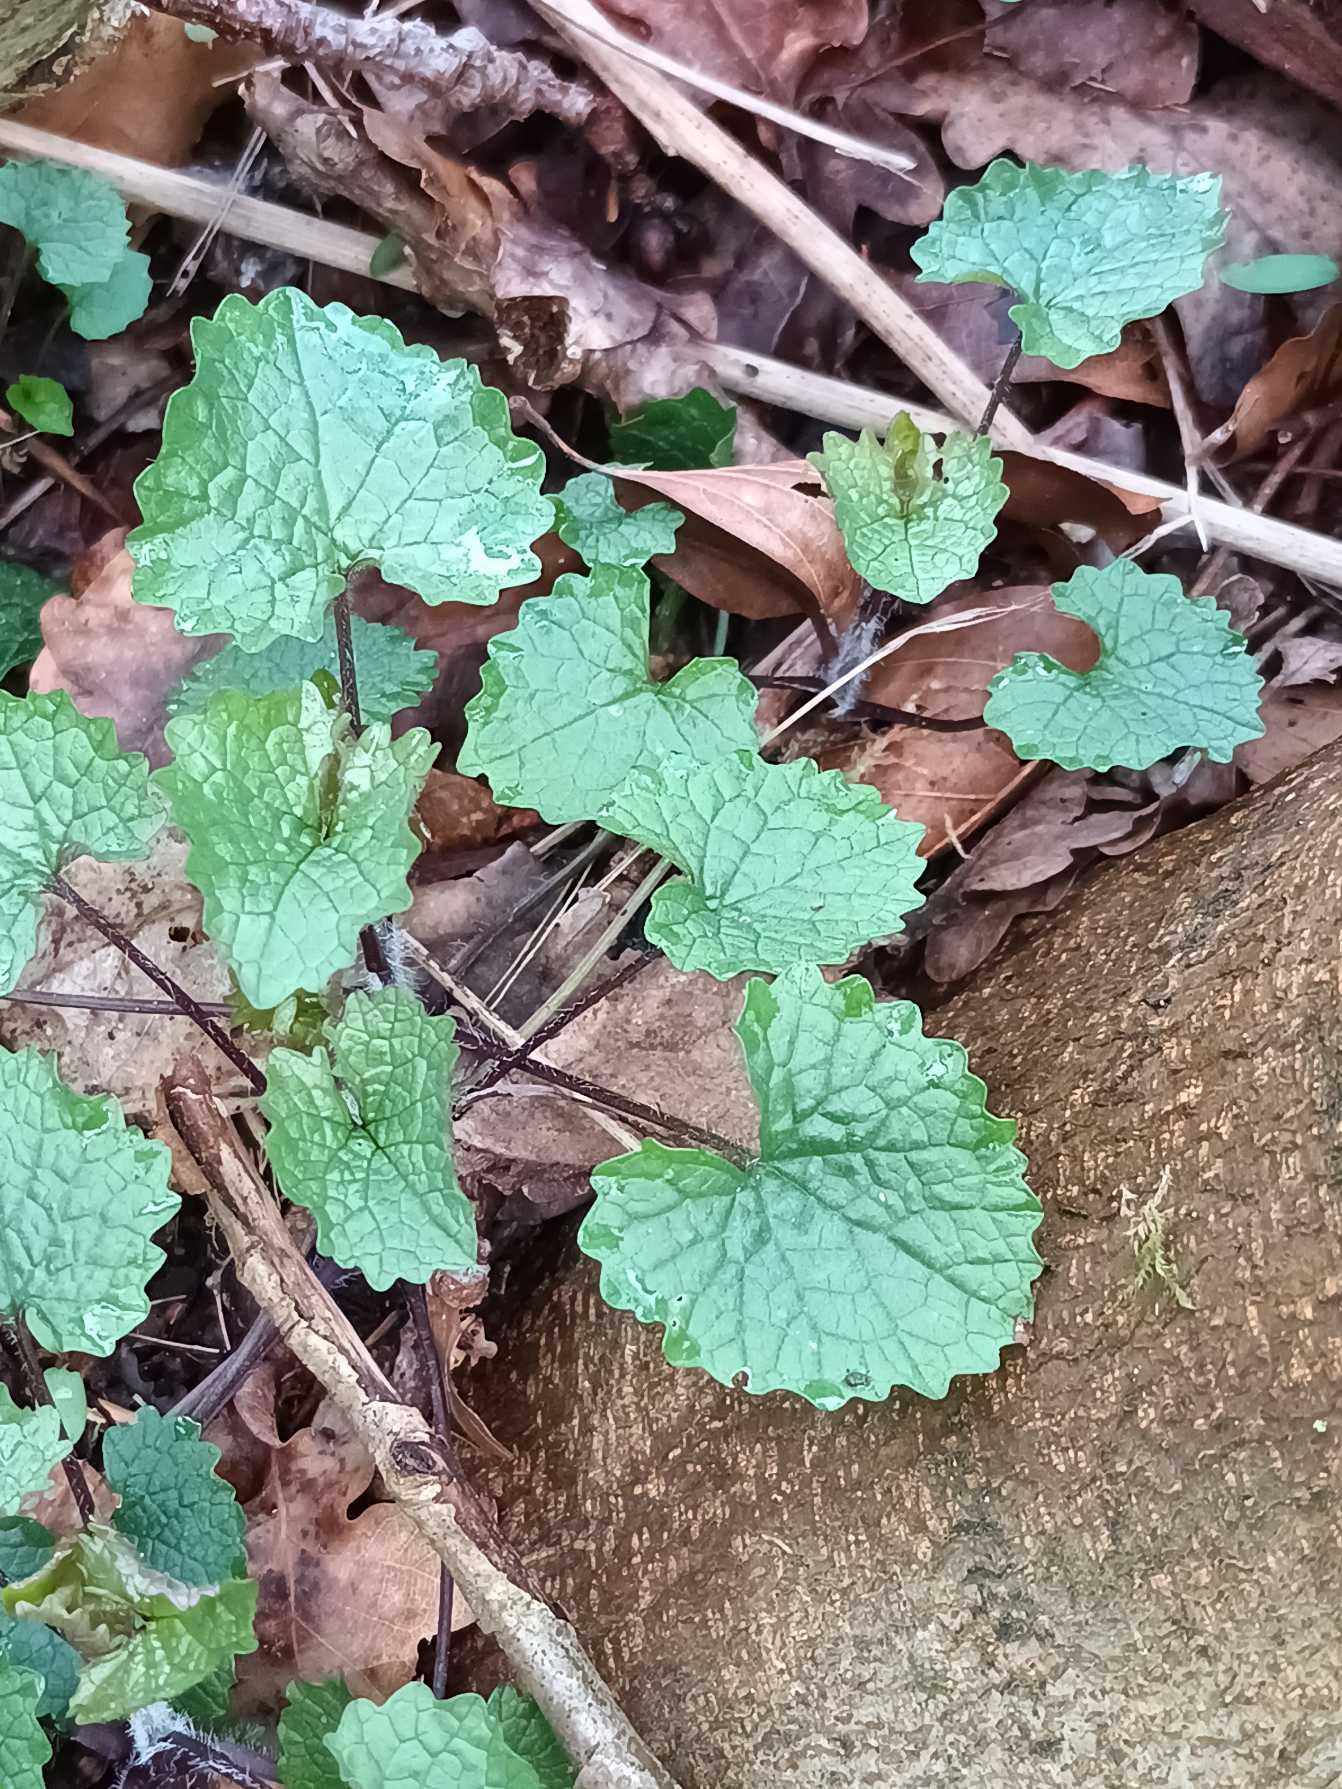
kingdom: Plantae
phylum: Tracheophyta
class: Magnoliopsida
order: Brassicales
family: Brassicaceae
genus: Alliaria
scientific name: Alliaria petiolata
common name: Løgkarse
